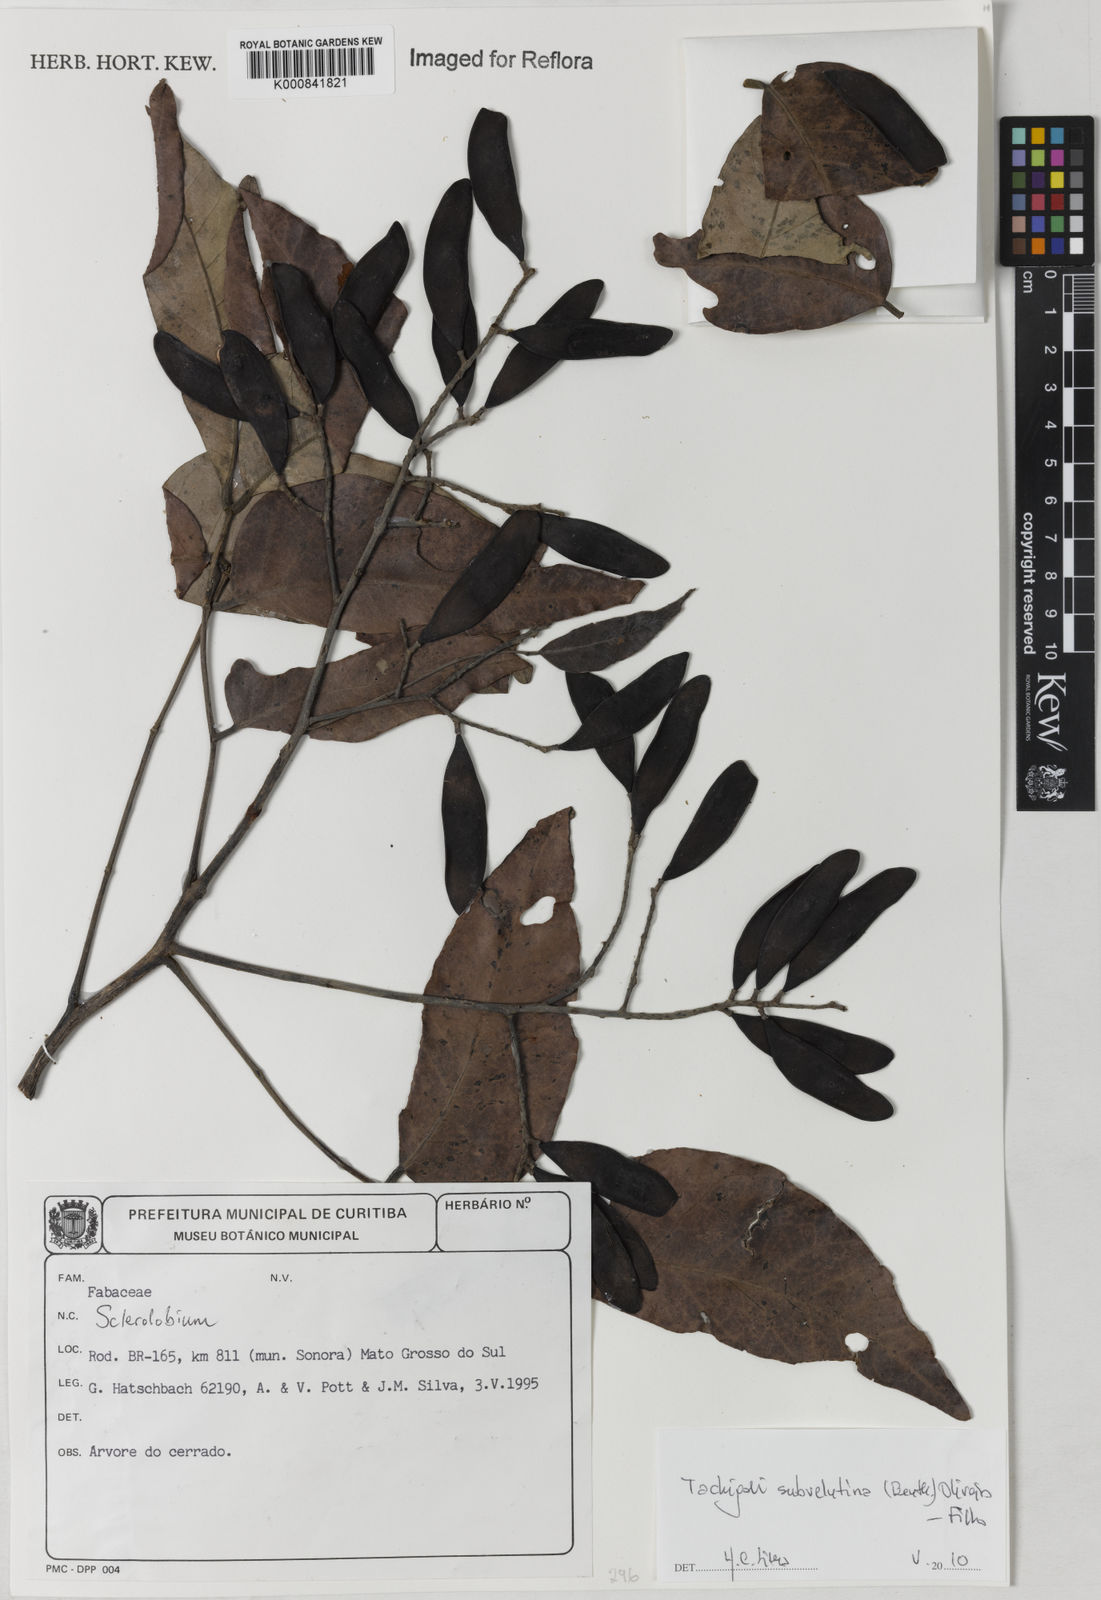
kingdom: Plantae
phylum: Tracheophyta
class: Magnoliopsida
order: Fabales
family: Fabaceae
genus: Tachigali
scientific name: Tachigali subvelutina
